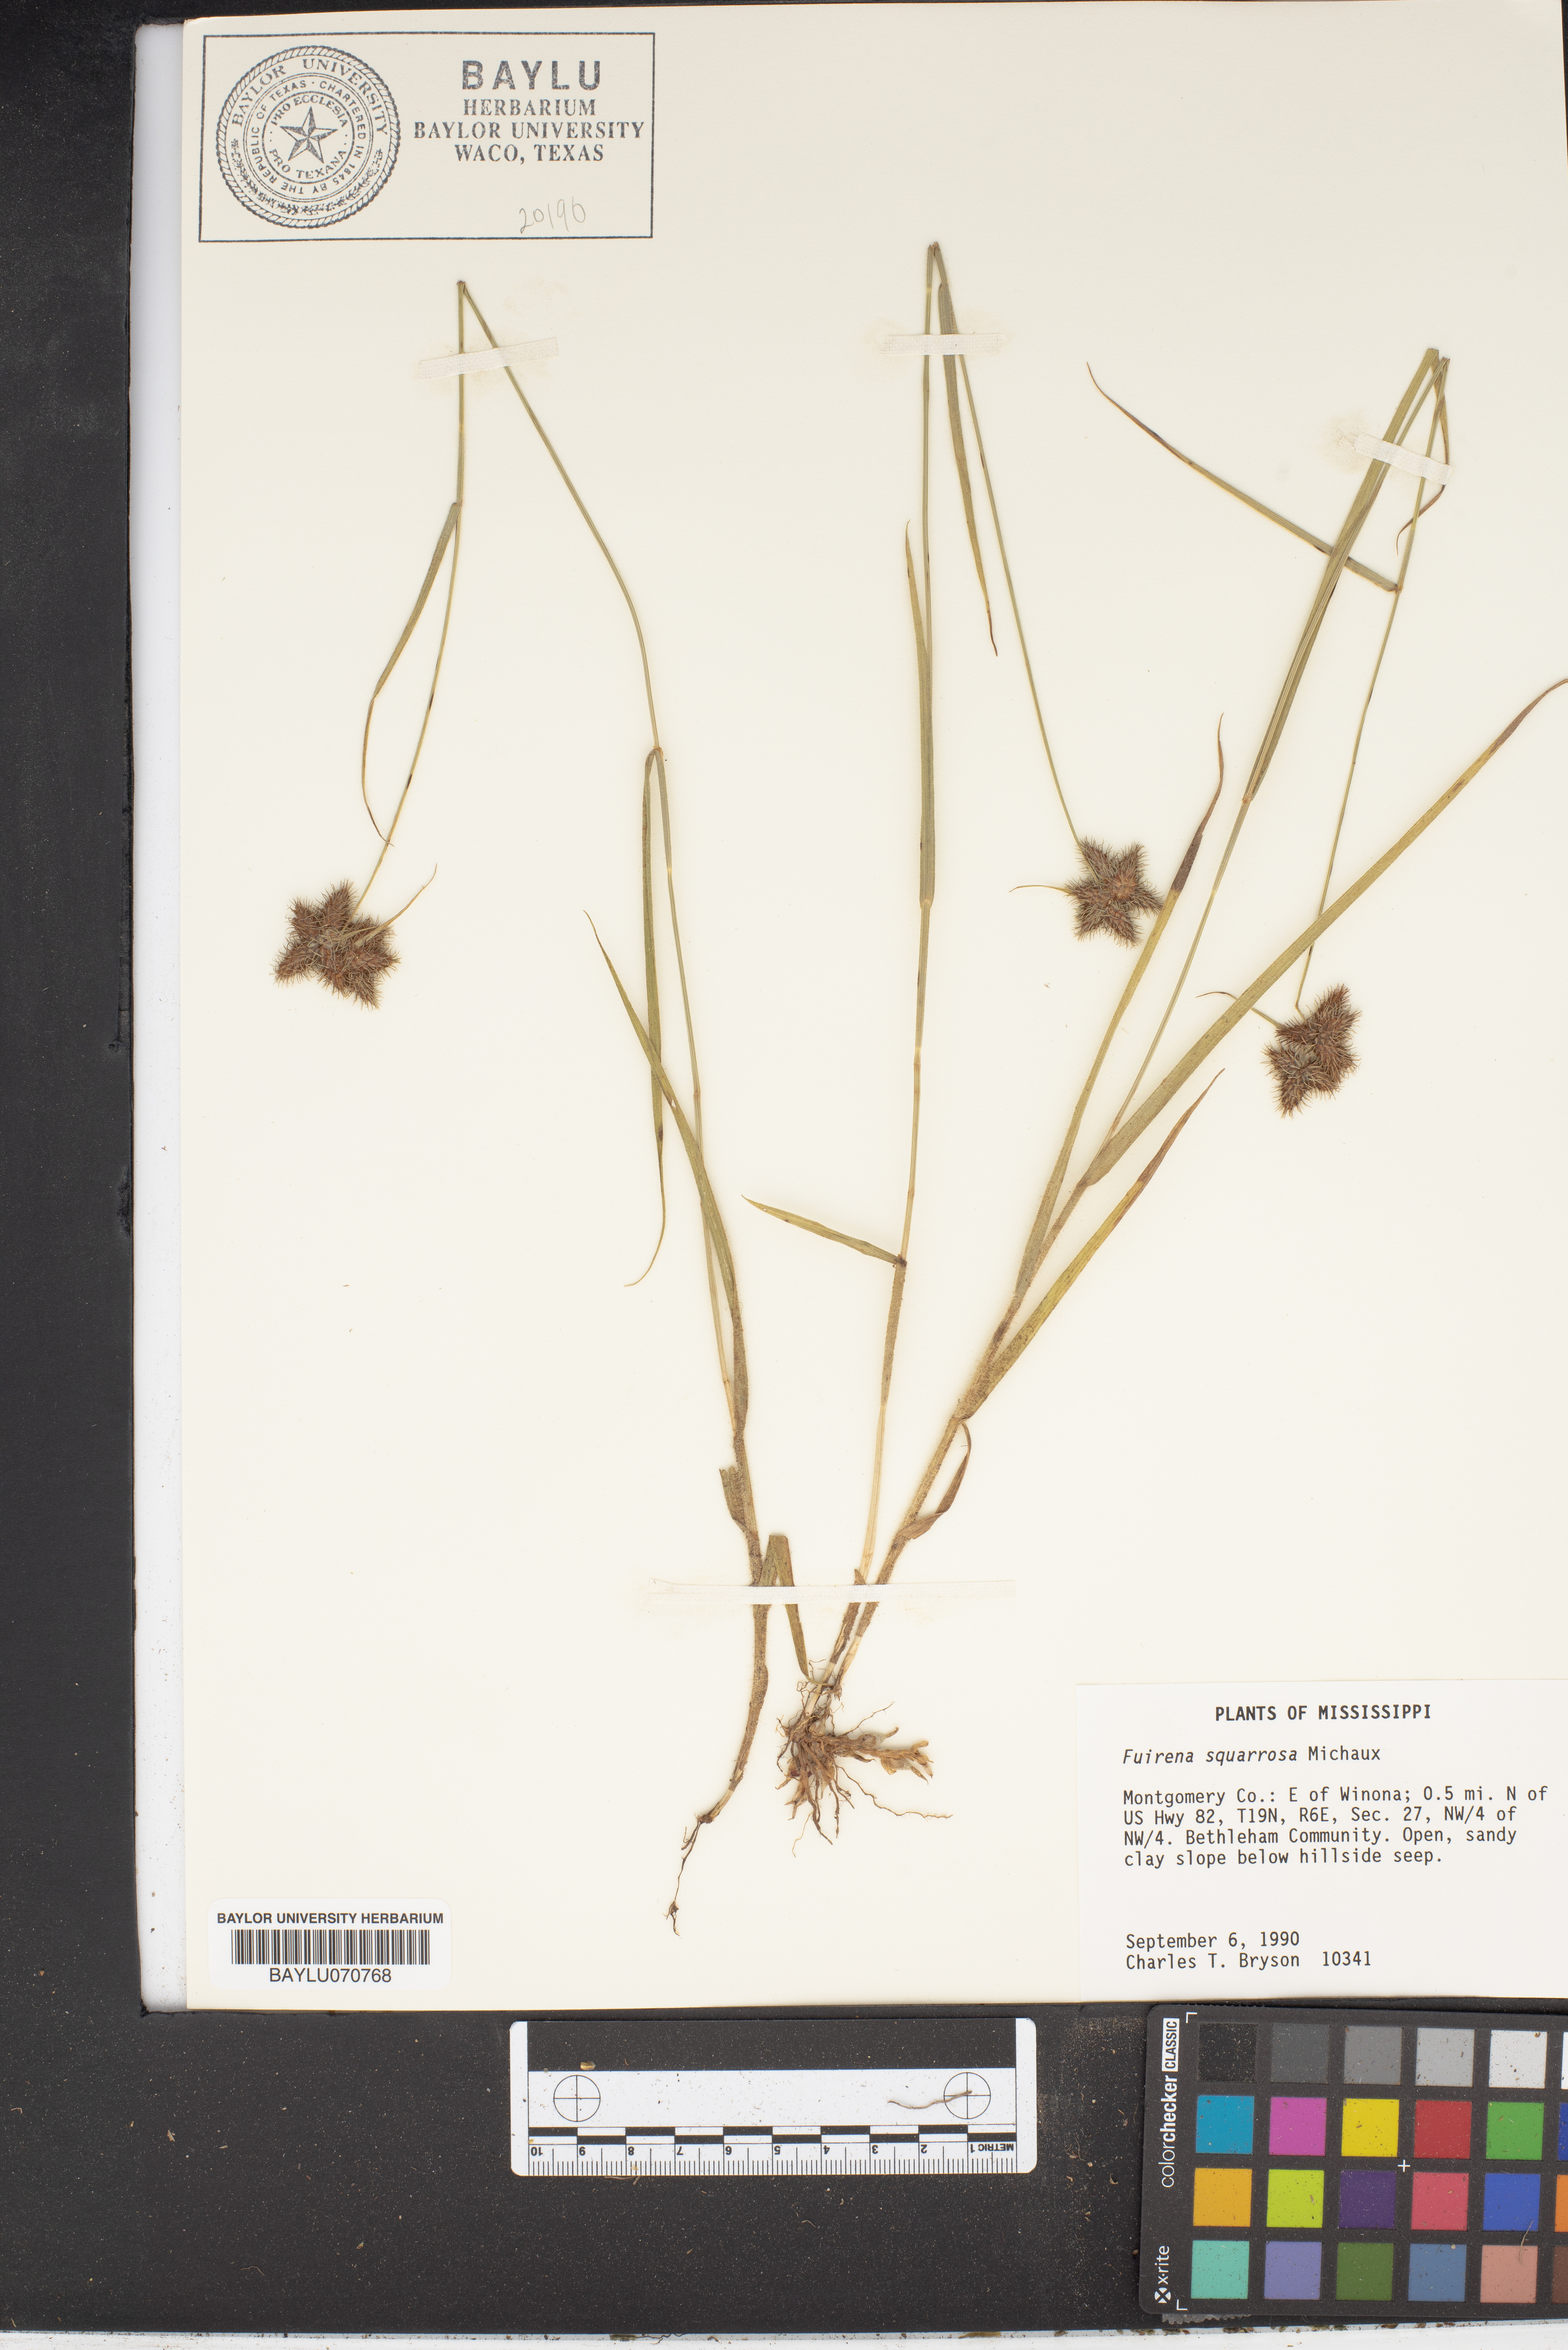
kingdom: Plantae
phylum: Tracheophyta
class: Liliopsida
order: Poales
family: Cyperaceae
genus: Fuirena
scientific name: Fuirena squarrosa
